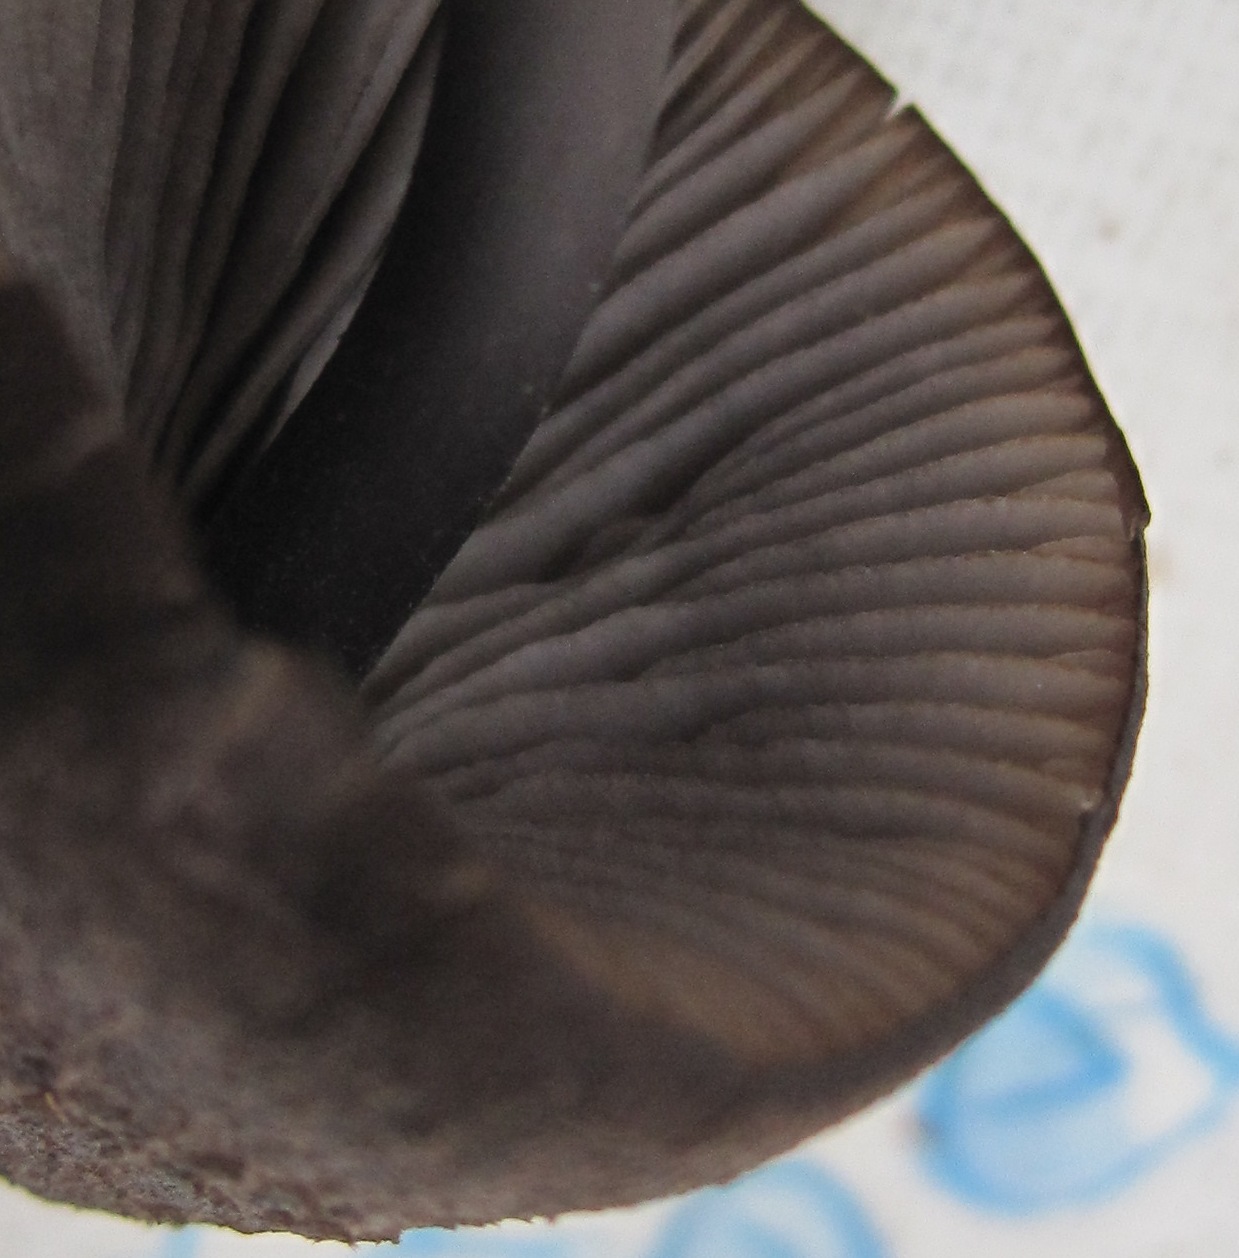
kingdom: Fungi
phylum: Basidiomycota
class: Agaricomycetes
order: Agaricales
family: Entolomataceae
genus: Entoloma
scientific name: Entoloma chalybeum
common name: blåbladet rødblad
